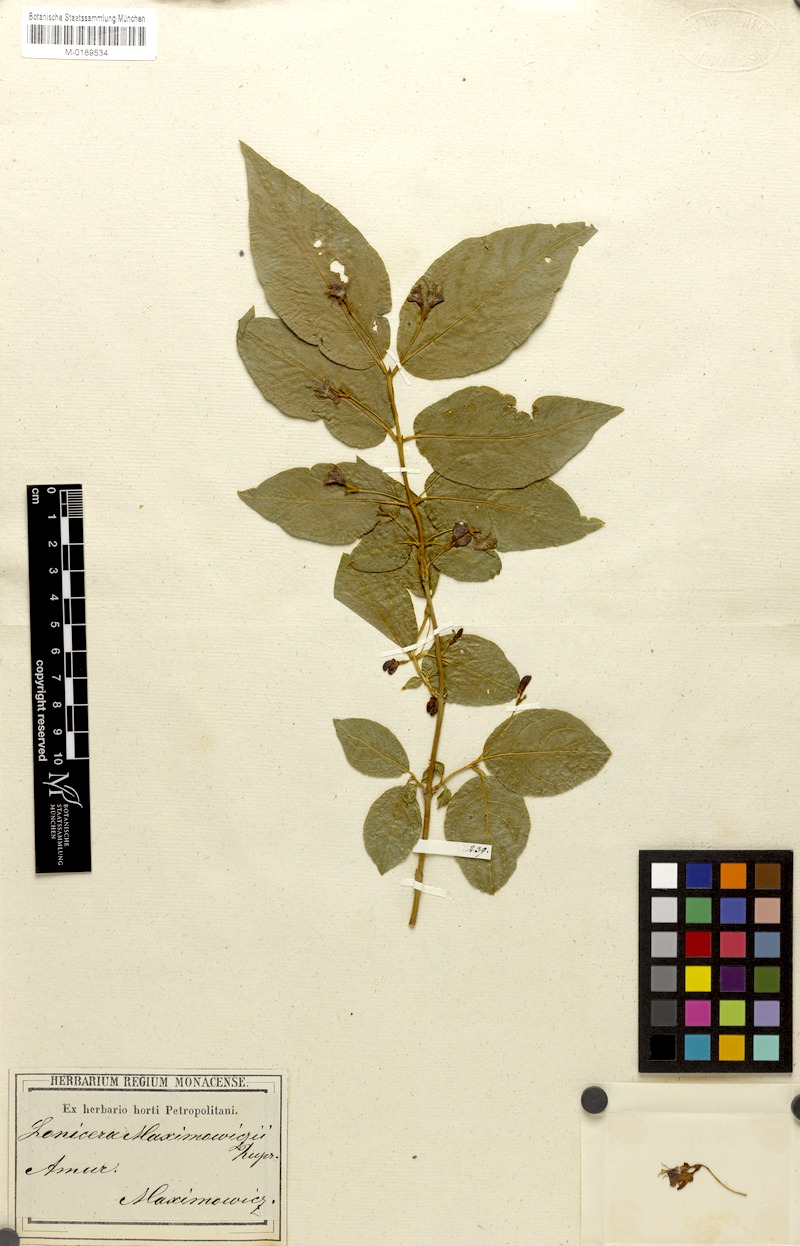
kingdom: Plantae
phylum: Tracheophyta
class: Magnoliopsida
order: Dipsacales
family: Caprifoliaceae
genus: Lonicera
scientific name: Lonicera maximowiczii
